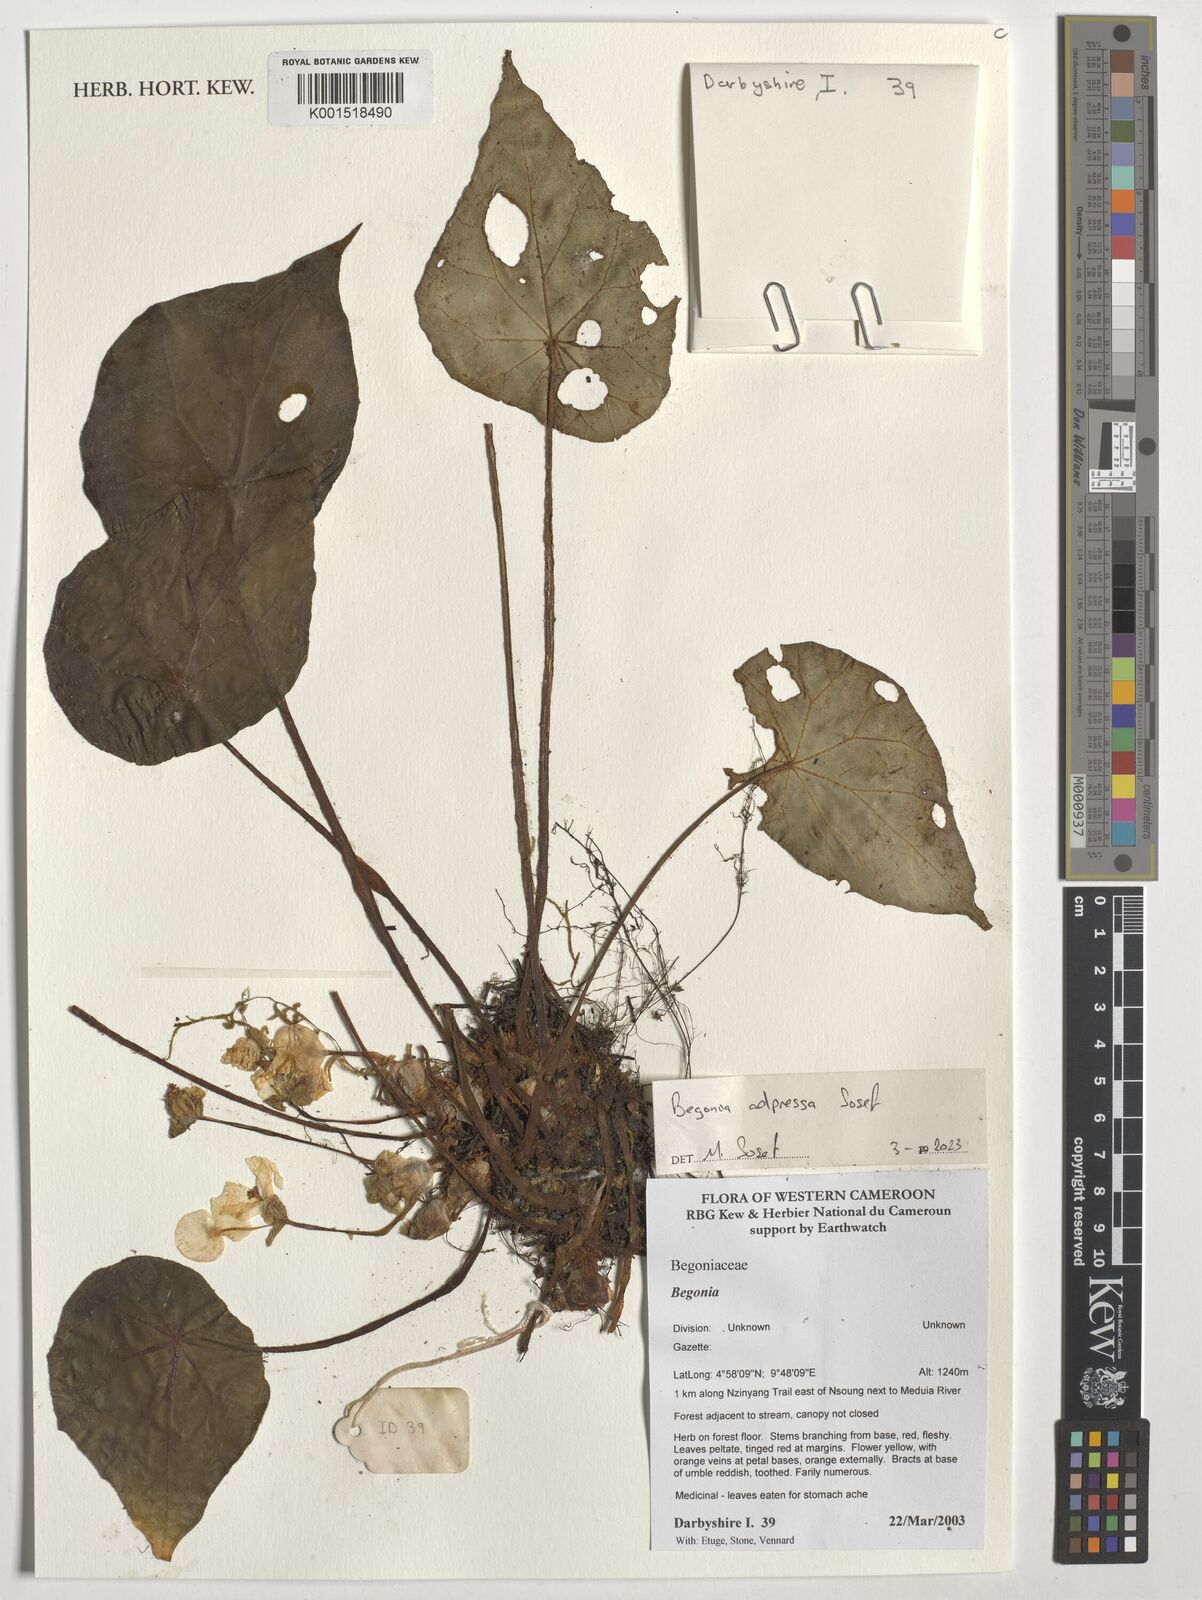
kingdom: Plantae
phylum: Tracheophyta
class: Magnoliopsida
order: Cucurbitales
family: Begoniaceae
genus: Begonia
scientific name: Begonia adpressa
